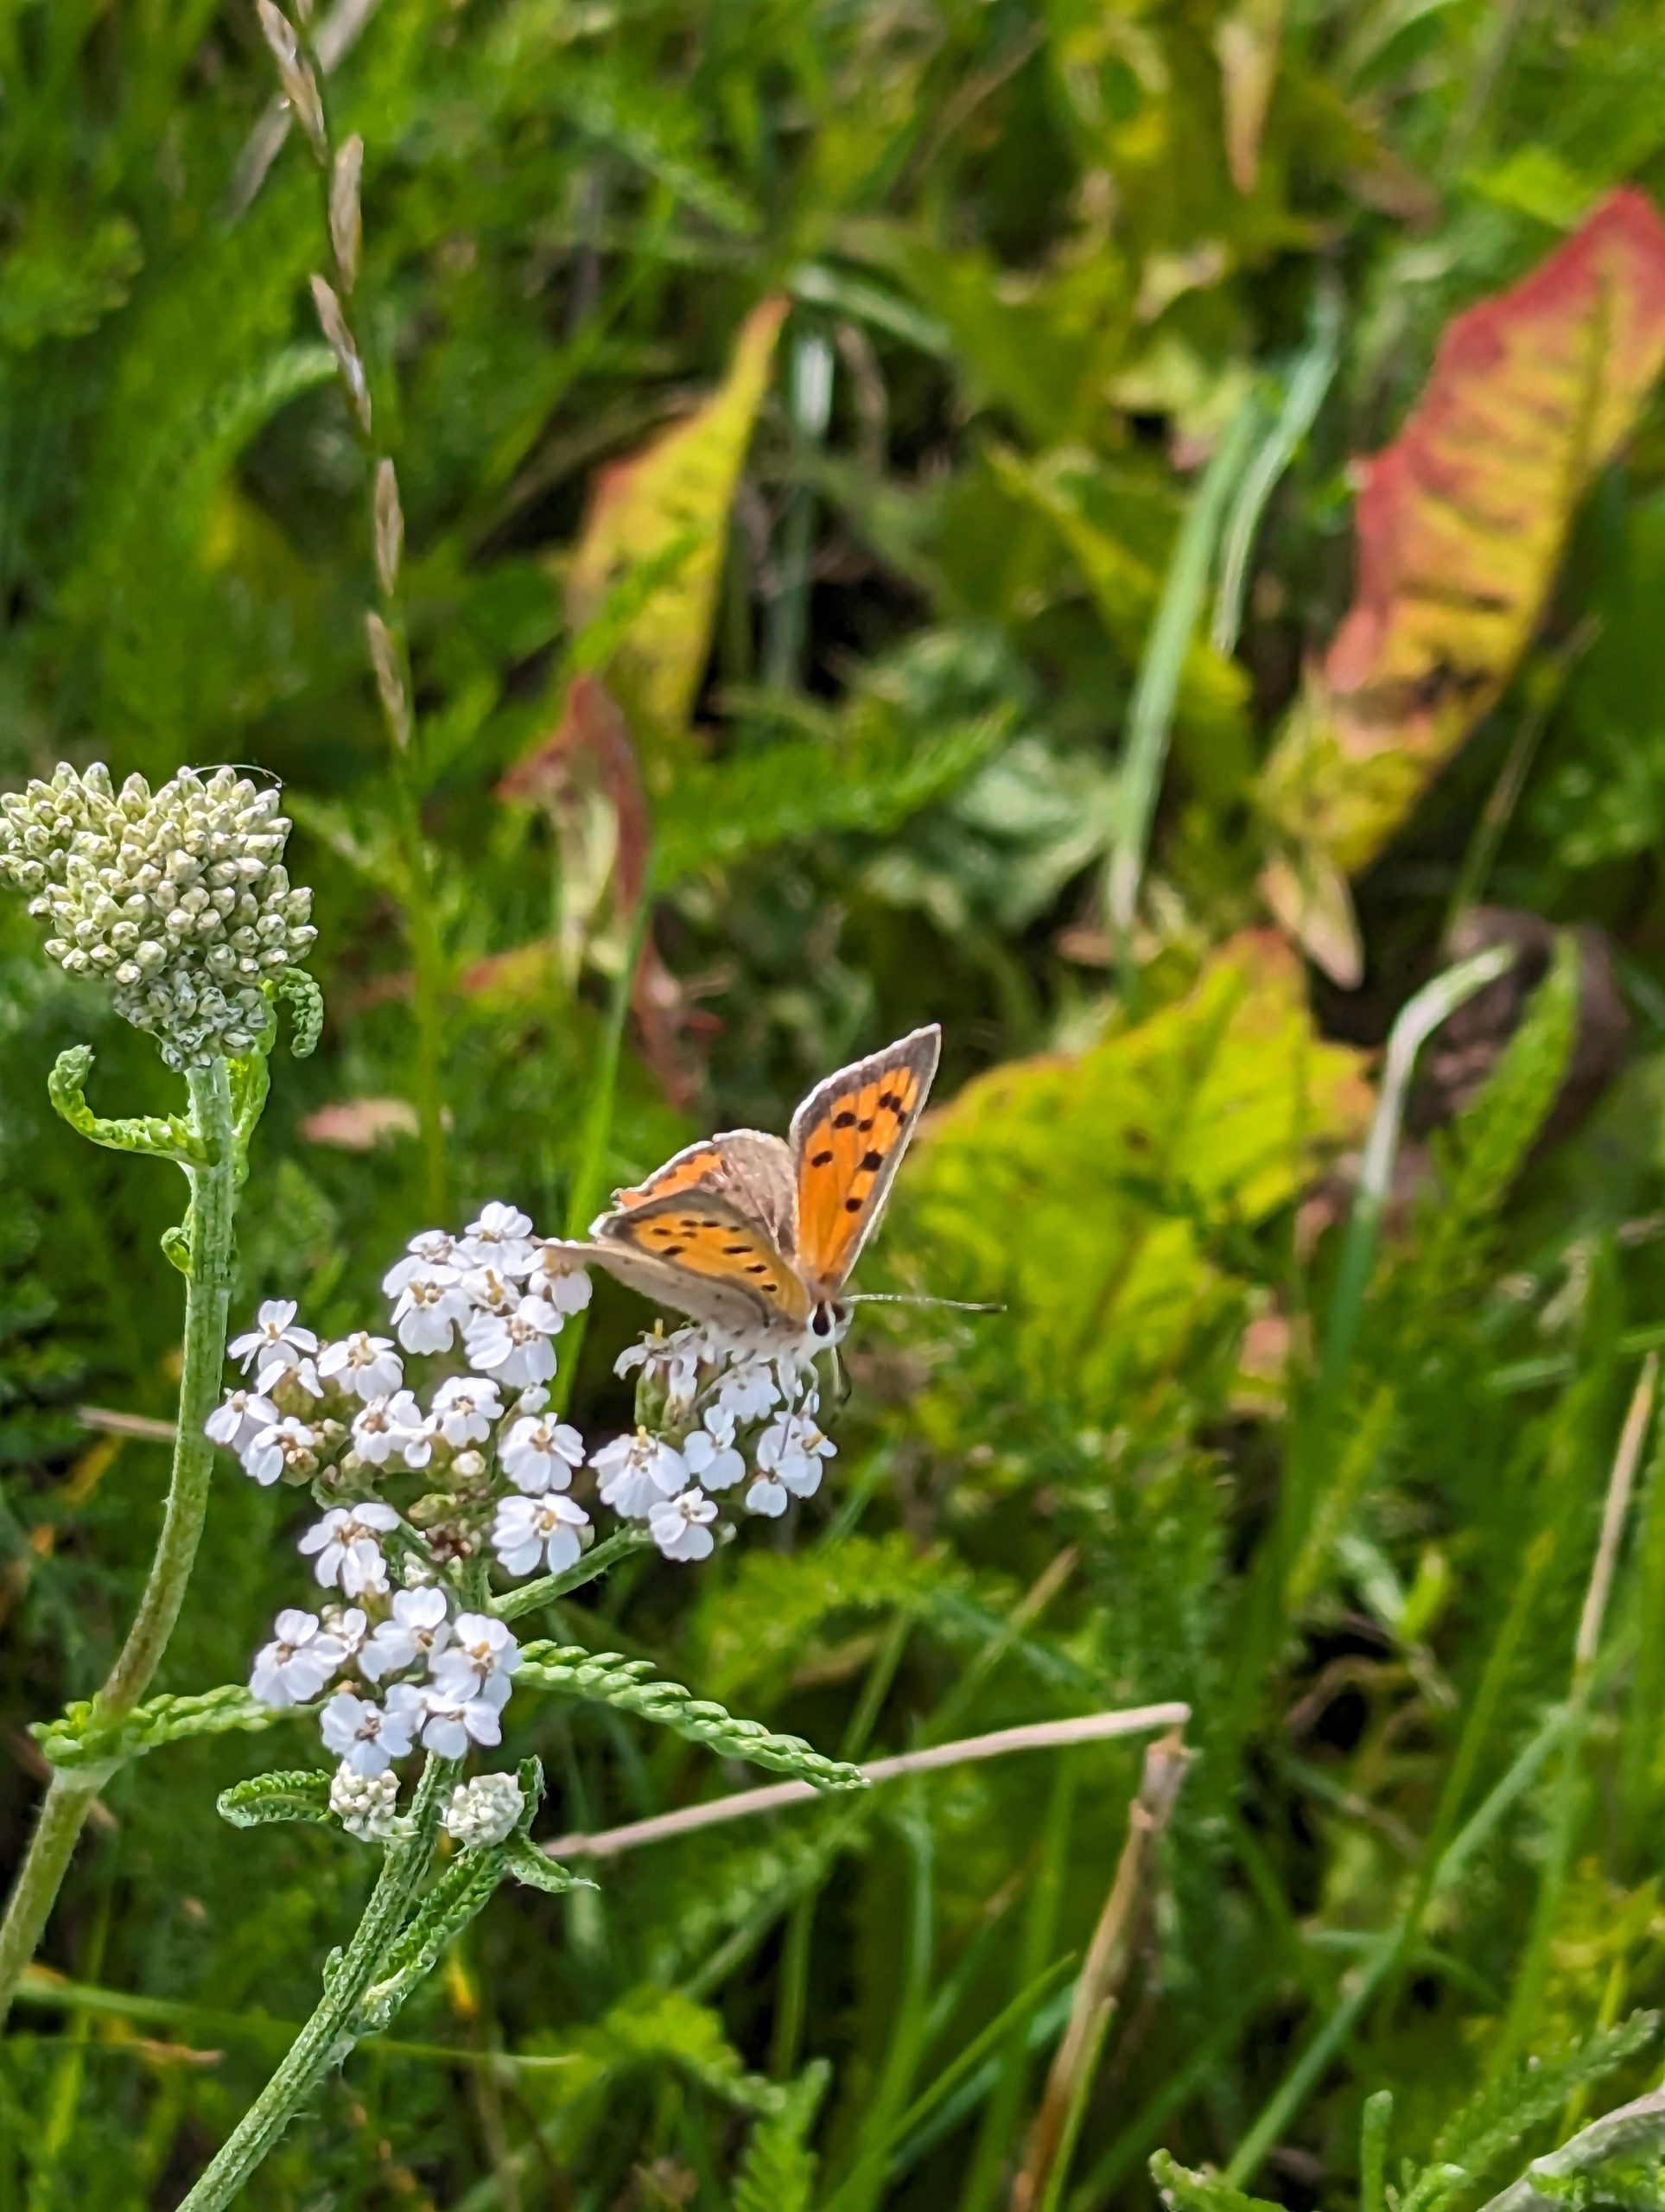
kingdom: Animalia
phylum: Arthropoda
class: Insecta
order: Lepidoptera
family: Lycaenidae
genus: Lycaena
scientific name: Lycaena phlaeas
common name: Lille ildfugl
